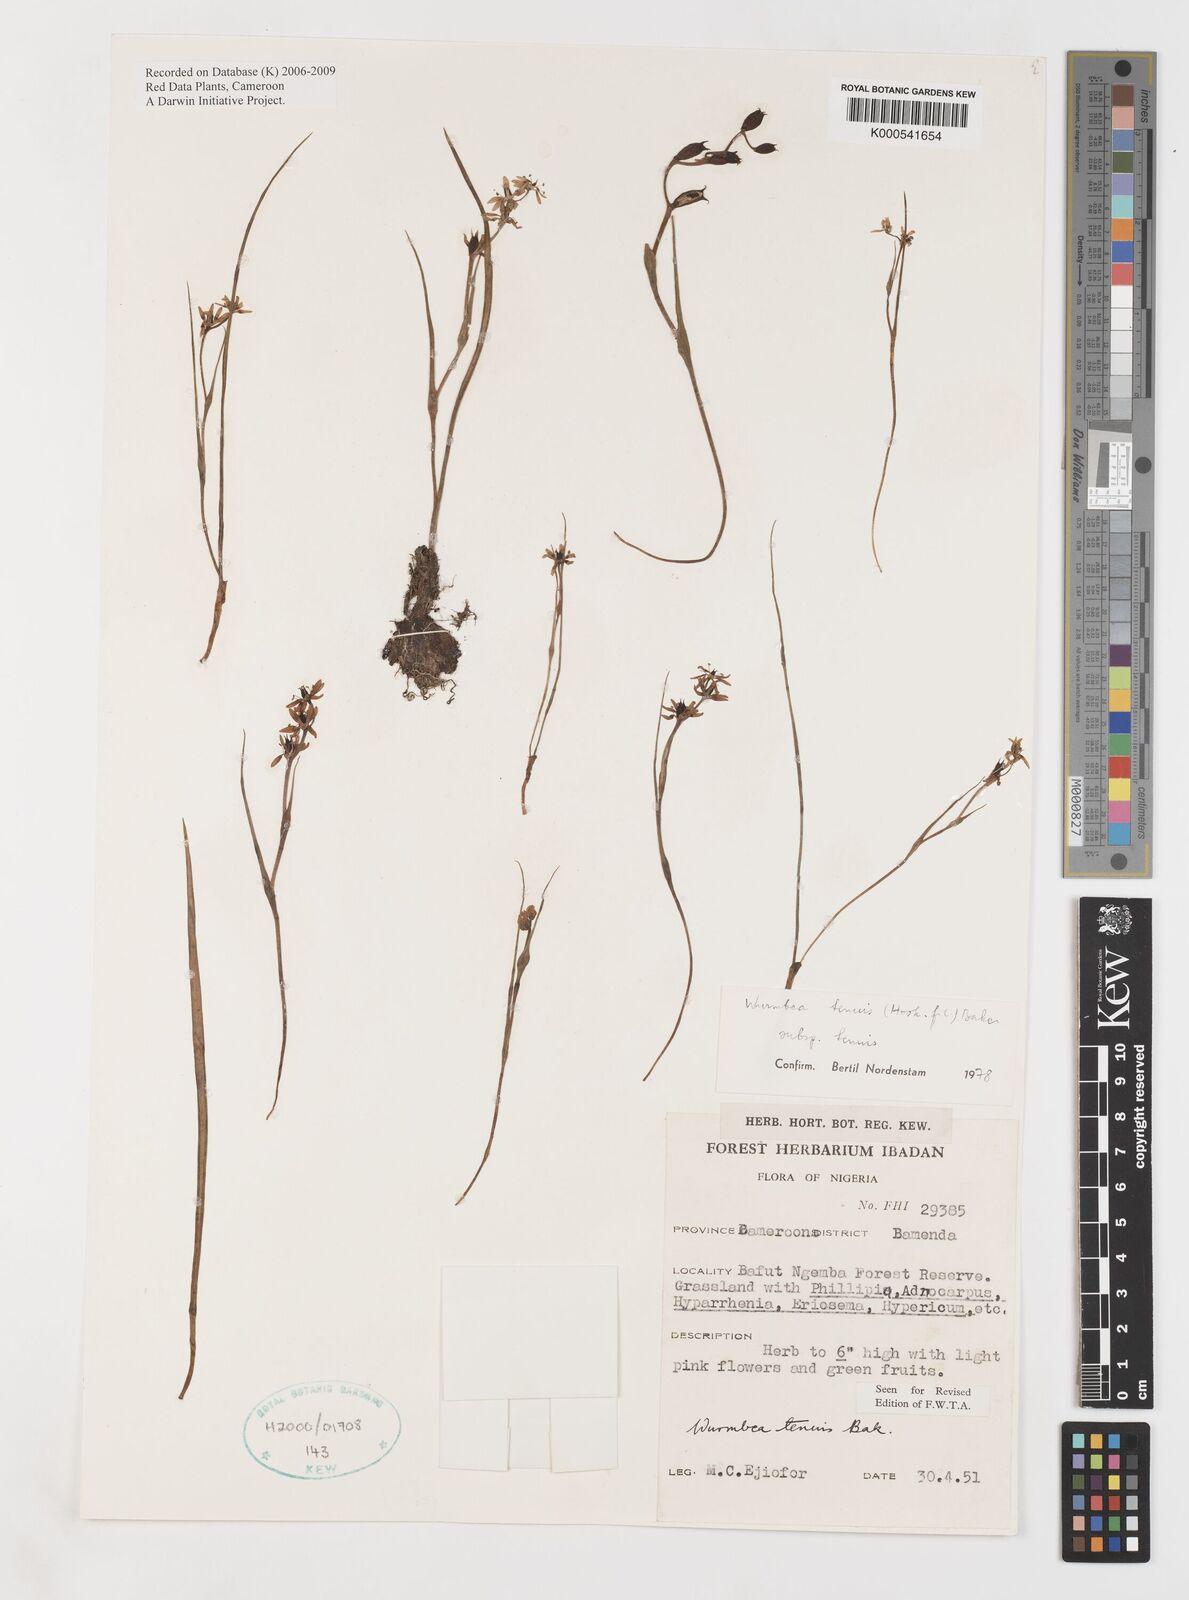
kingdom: Plantae
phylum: Tracheophyta
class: Liliopsida
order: Liliales
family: Colchicaceae
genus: Wurmbea
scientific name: Wurmbea tenuis
